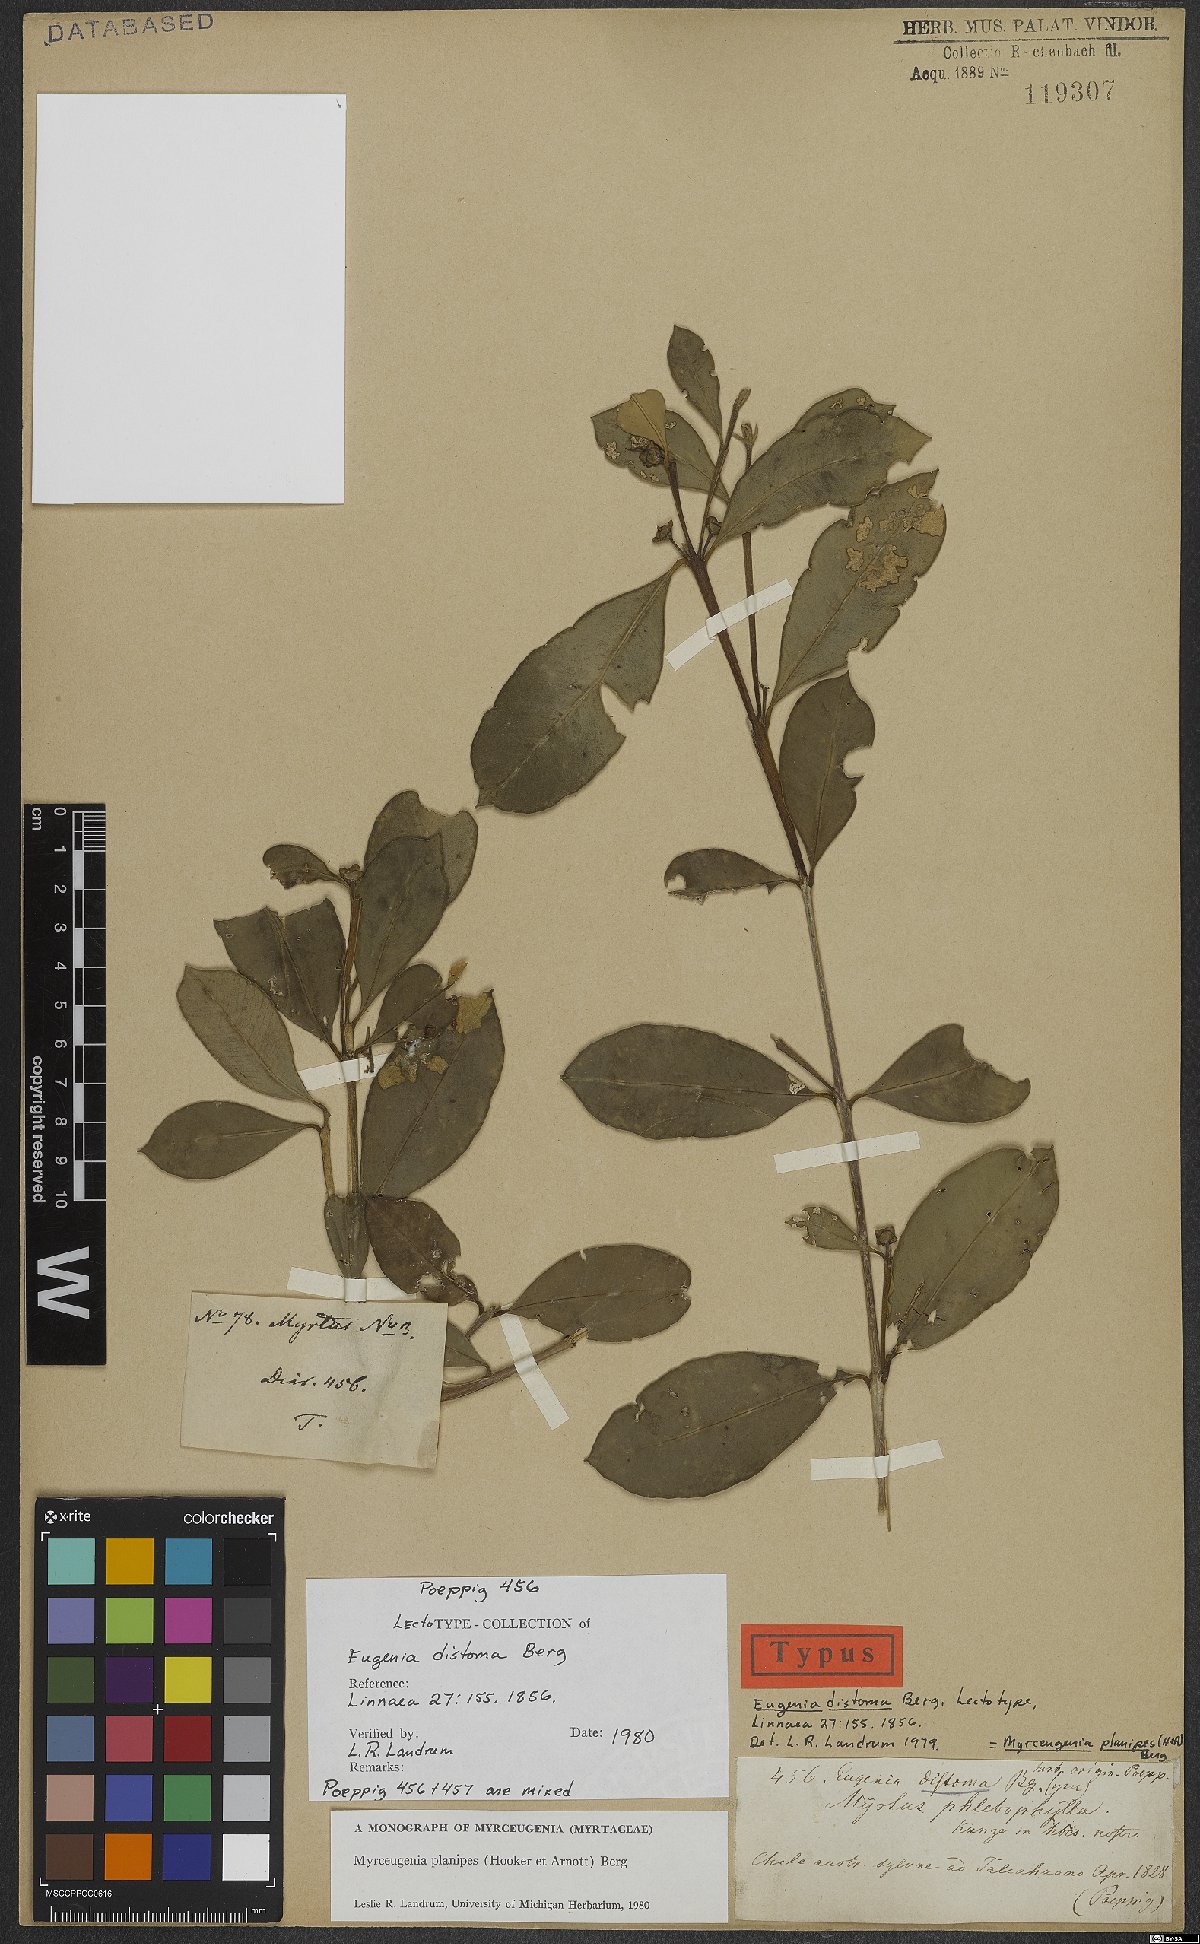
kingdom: Plantae
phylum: Tracheophyta
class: Magnoliopsida
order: Myrtales
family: Myrtaceae
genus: Myrceugenia
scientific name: Myrceugenia planipes
